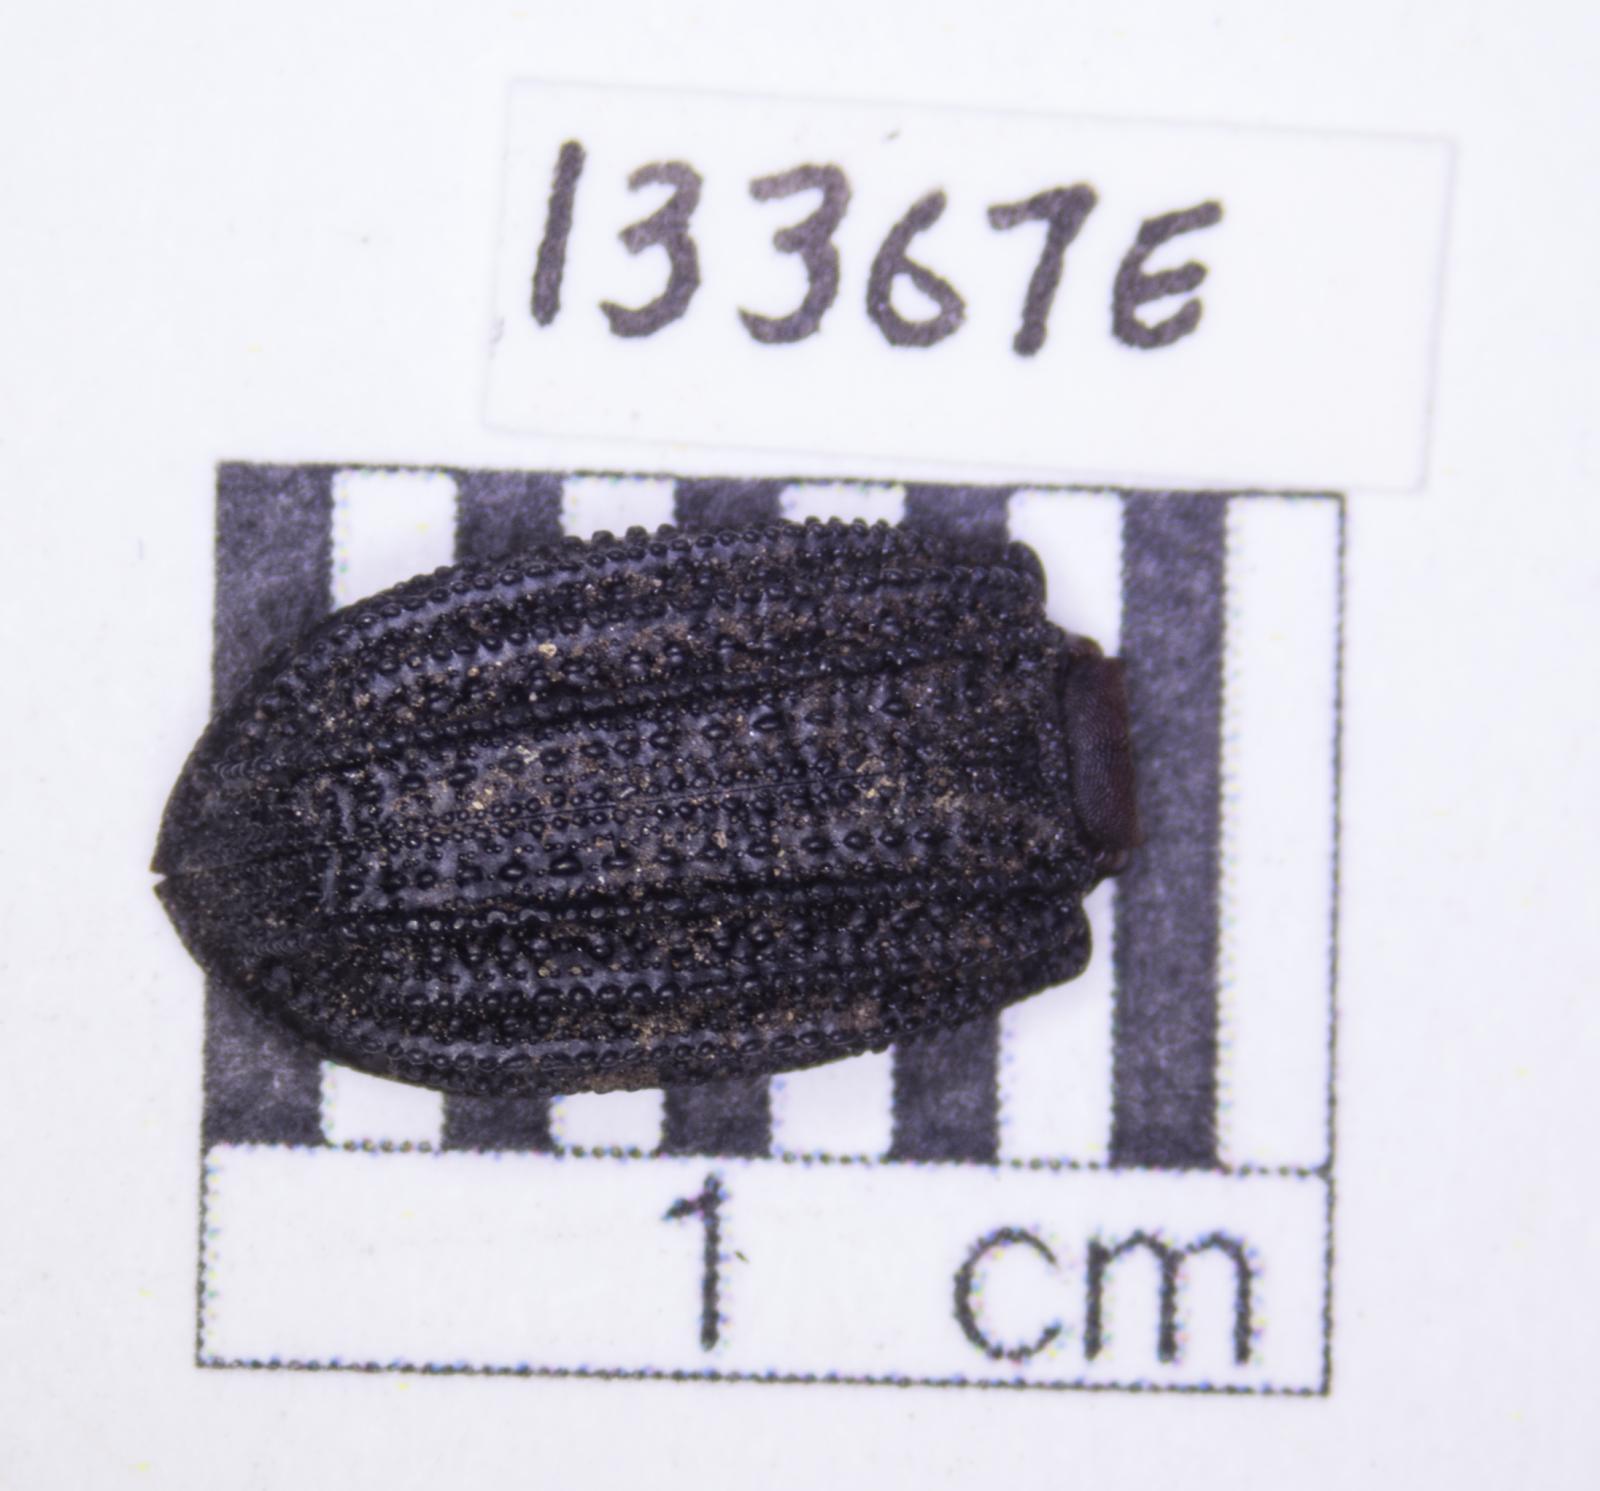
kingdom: Animalia
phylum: Arthropoda
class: Insecta
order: Coleoptera
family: Tenebrionidae
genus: Nyctoporis
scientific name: Nyctoporis carinata
